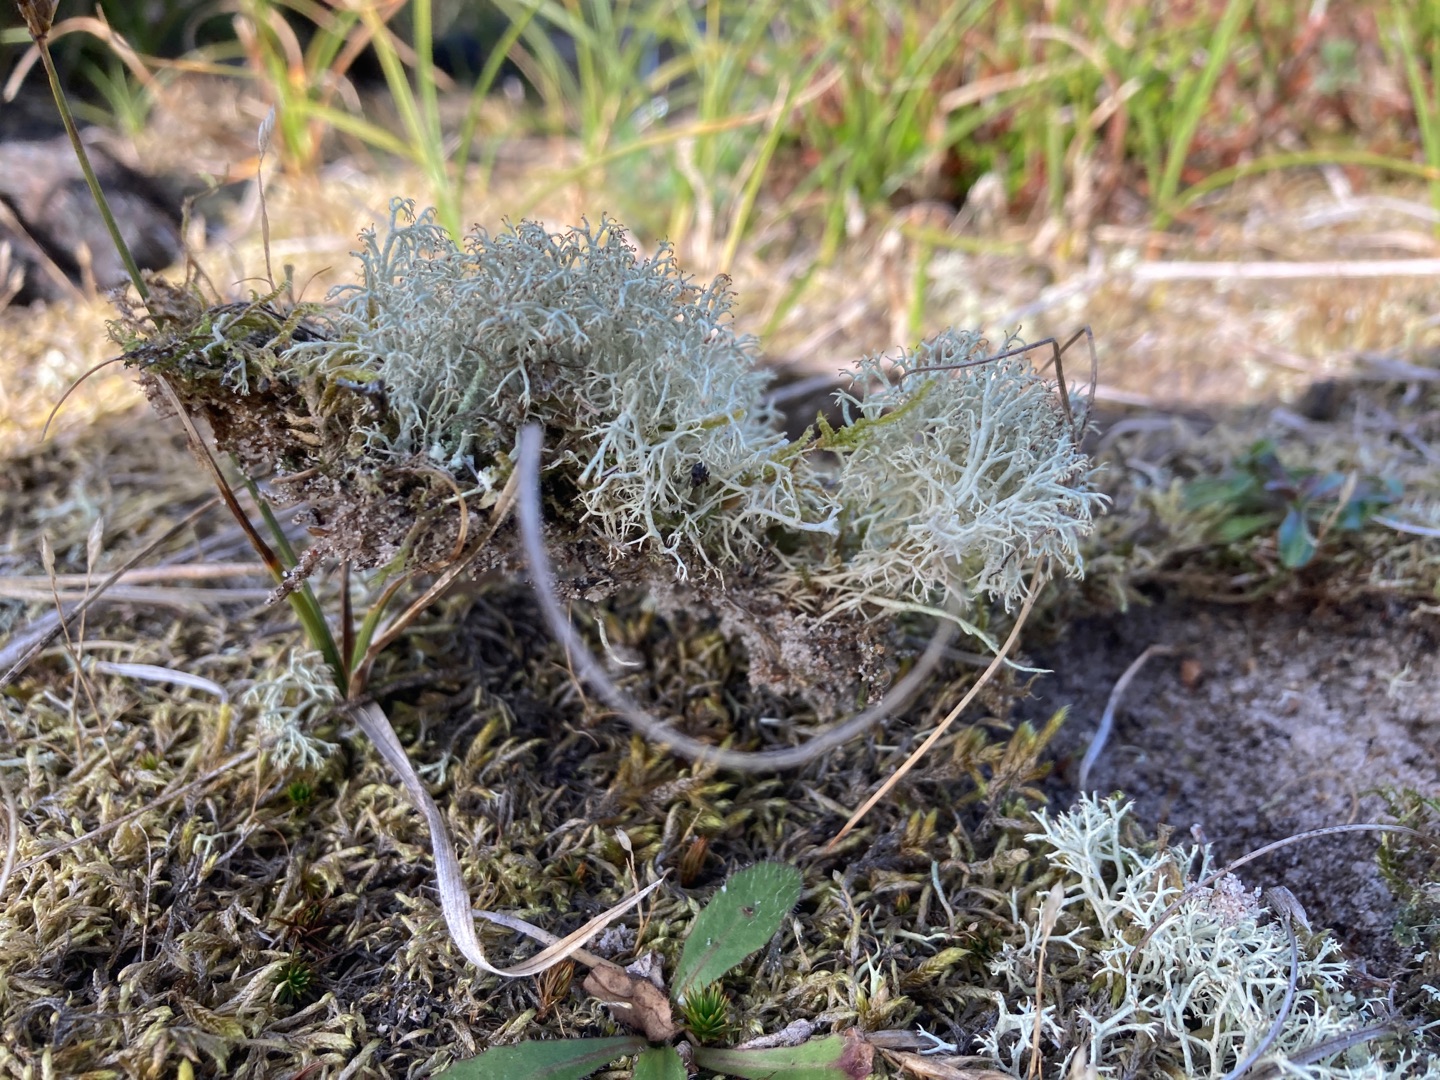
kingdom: Fungi
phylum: Ascomycota
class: Lecanoromycetes
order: Lecanorales
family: Cladoniaceae
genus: Cladonia
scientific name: Cladonia ciliata
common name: Spinkel rensdyrlav
